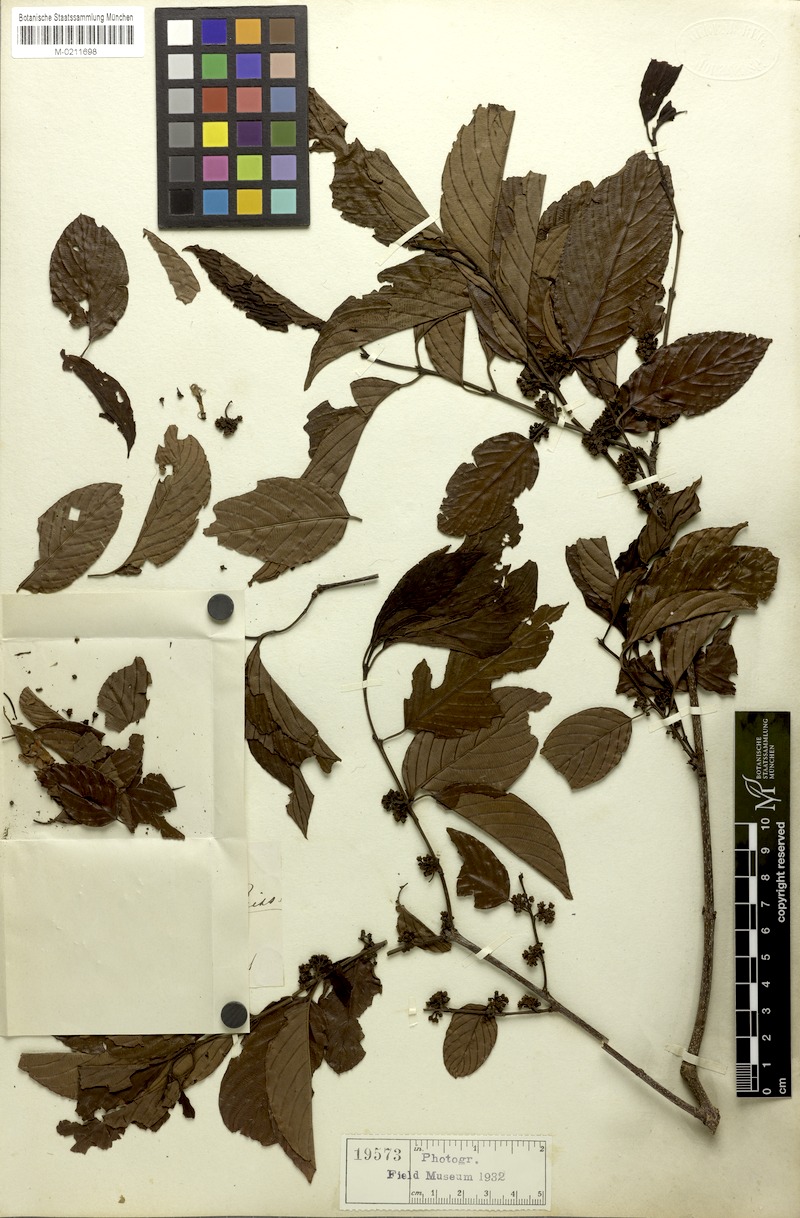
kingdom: Plantae
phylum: Tracheophyta
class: Magnoliopsida
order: Rosales
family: Rhamnaceae
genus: Rhamnidium
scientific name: Rhamnidium glabrum
